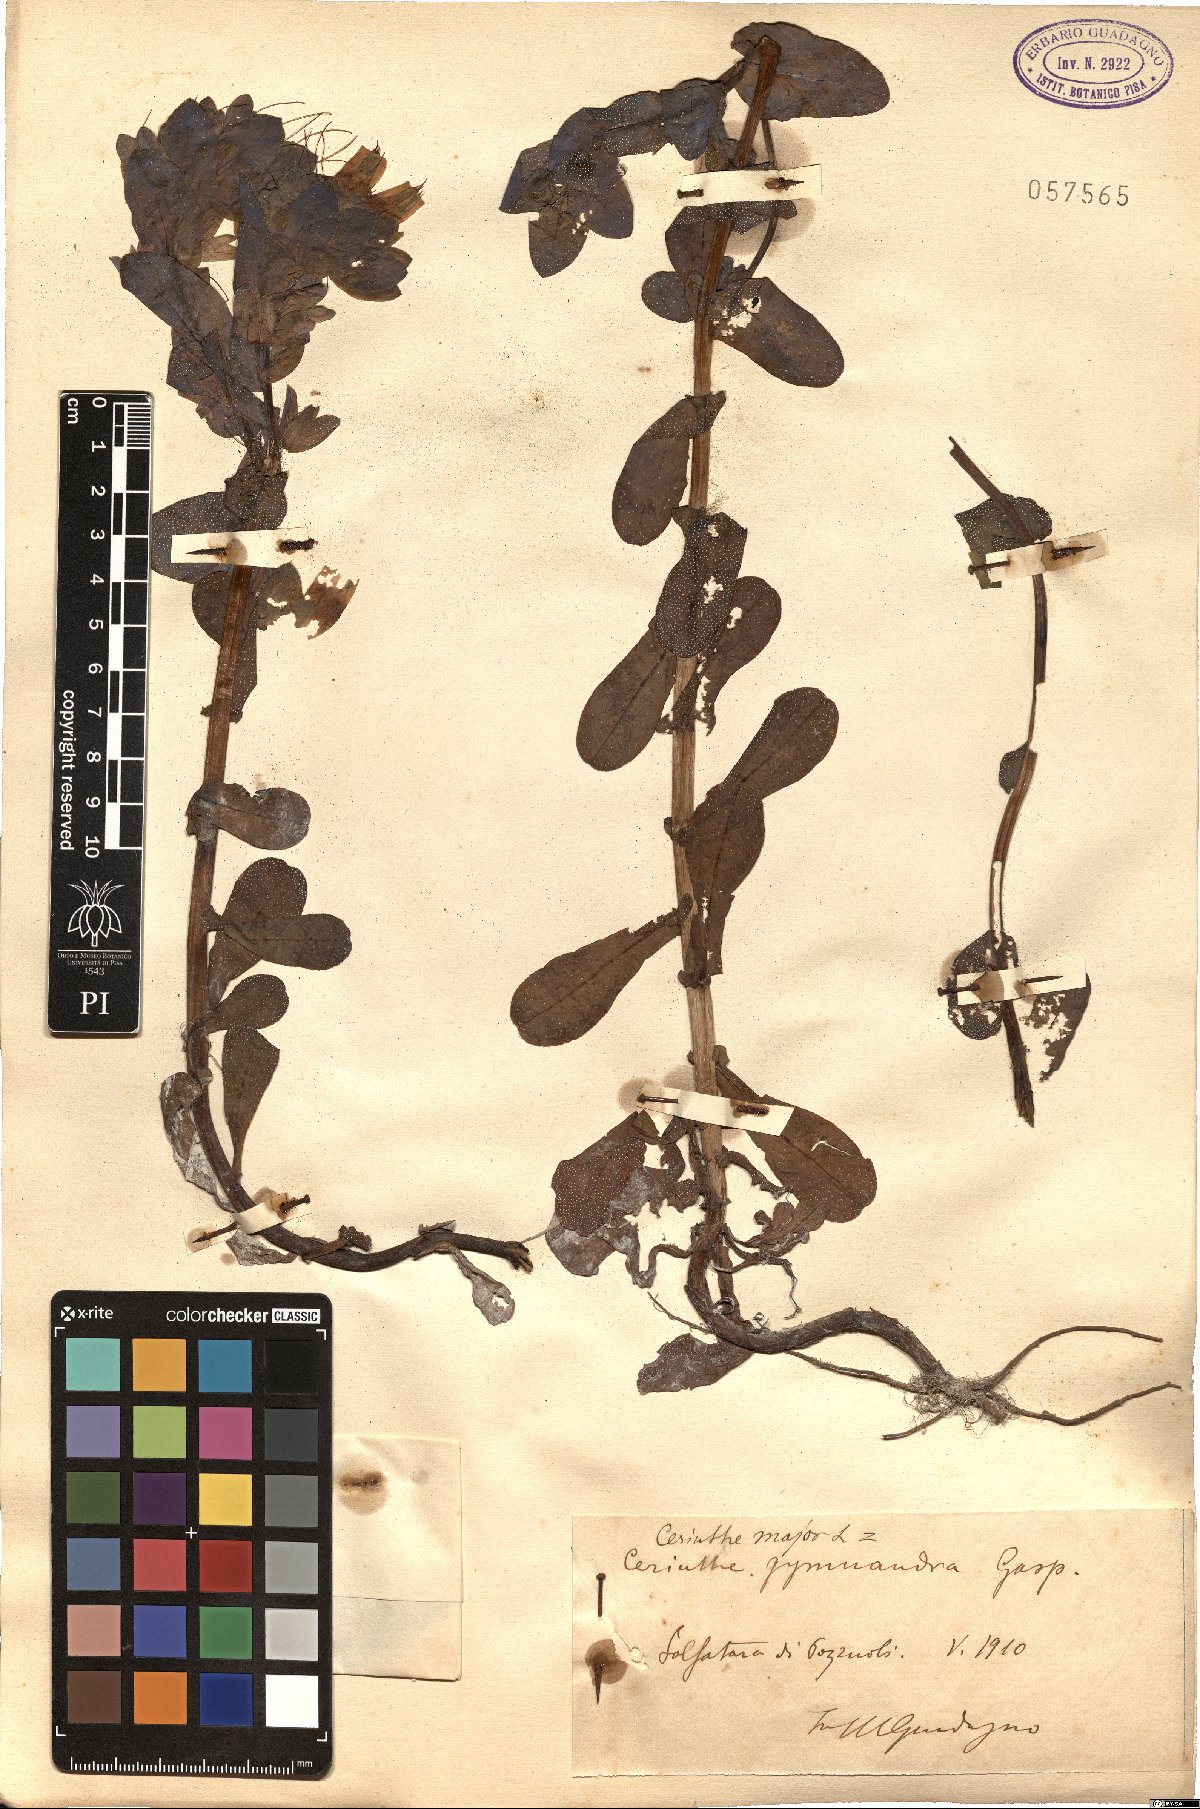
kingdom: Plantae
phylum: Tracheophyta
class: Magnoliopsida
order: Boraginales
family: Boraginaceae
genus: Cerinthe
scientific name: Cerinthe major
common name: Greater honeywort
